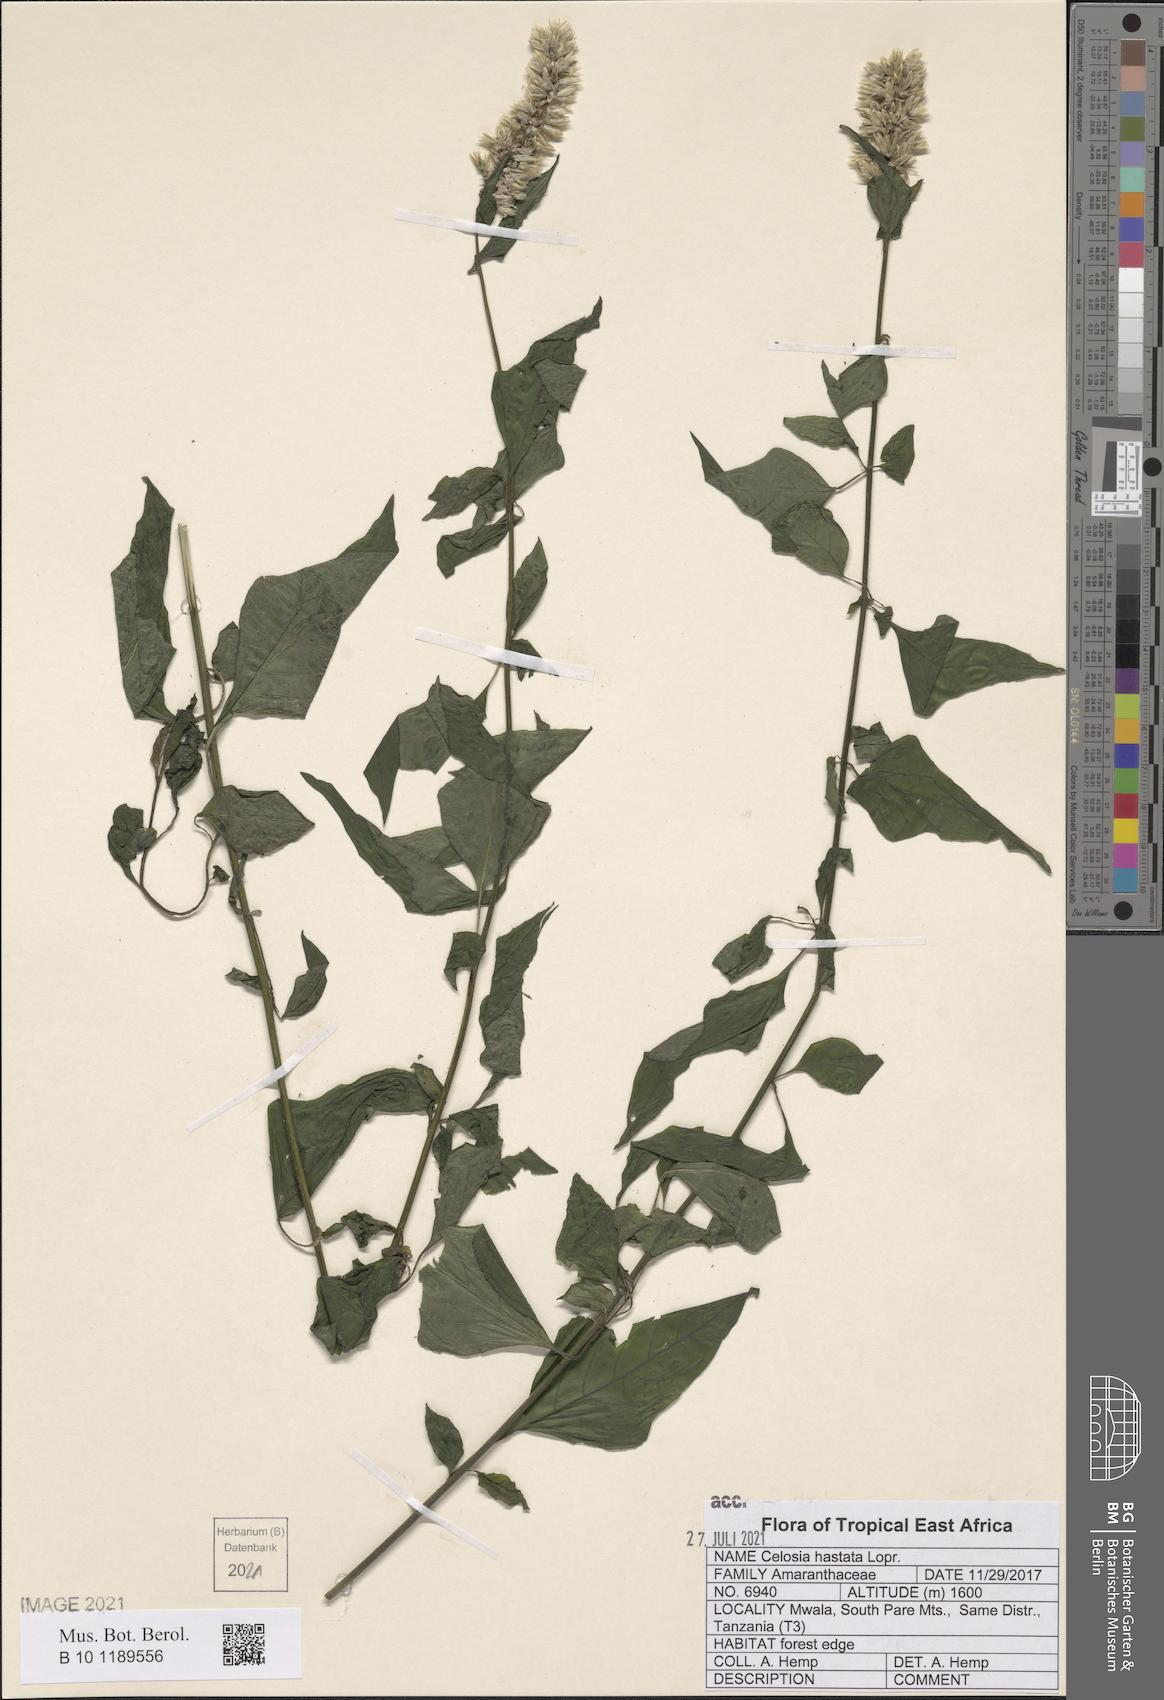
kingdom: Plantae
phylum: Tracheophyta
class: Magnoliopsida
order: Caryophyllales
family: Amaranthaceae
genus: Celosia
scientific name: Celosia hastata
